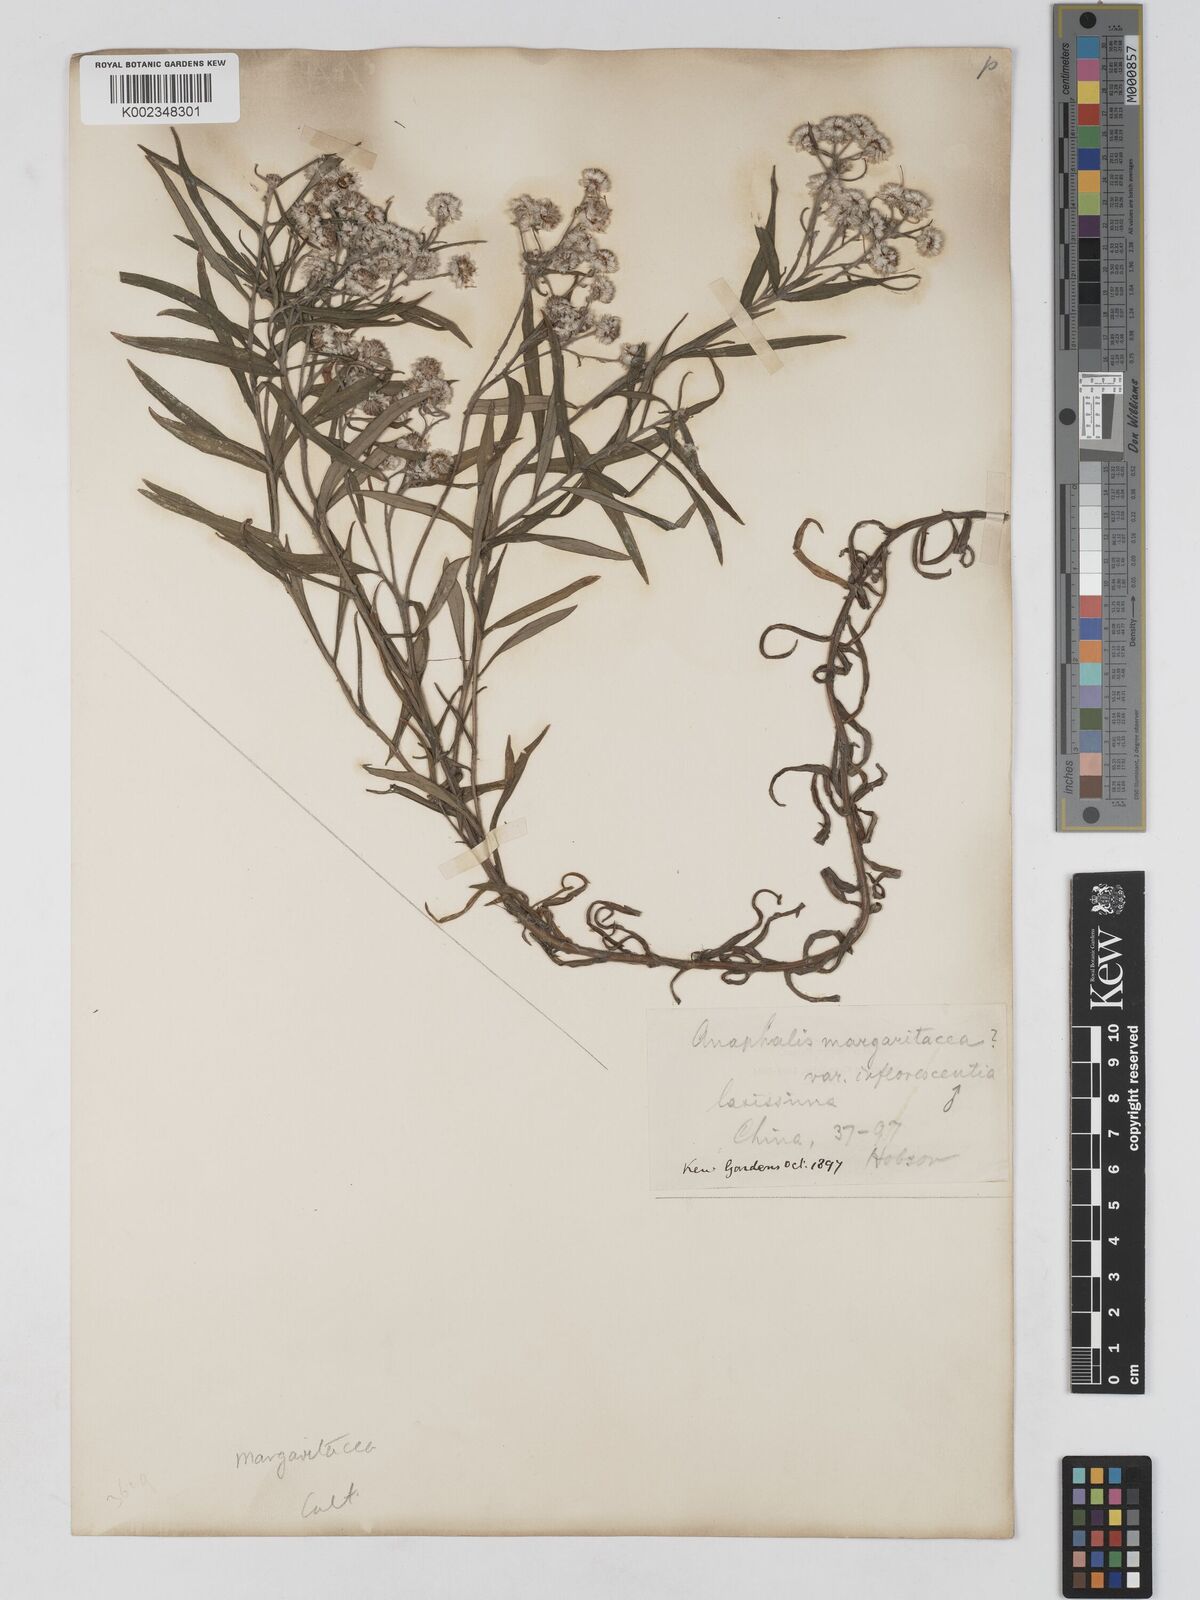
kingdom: Plantae
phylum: Tracheophyta
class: Magnoliopsida
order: Asterales
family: Asteraceae
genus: Anaphalis
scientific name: Anaphalis margaritacea
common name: Pearly everlasting
